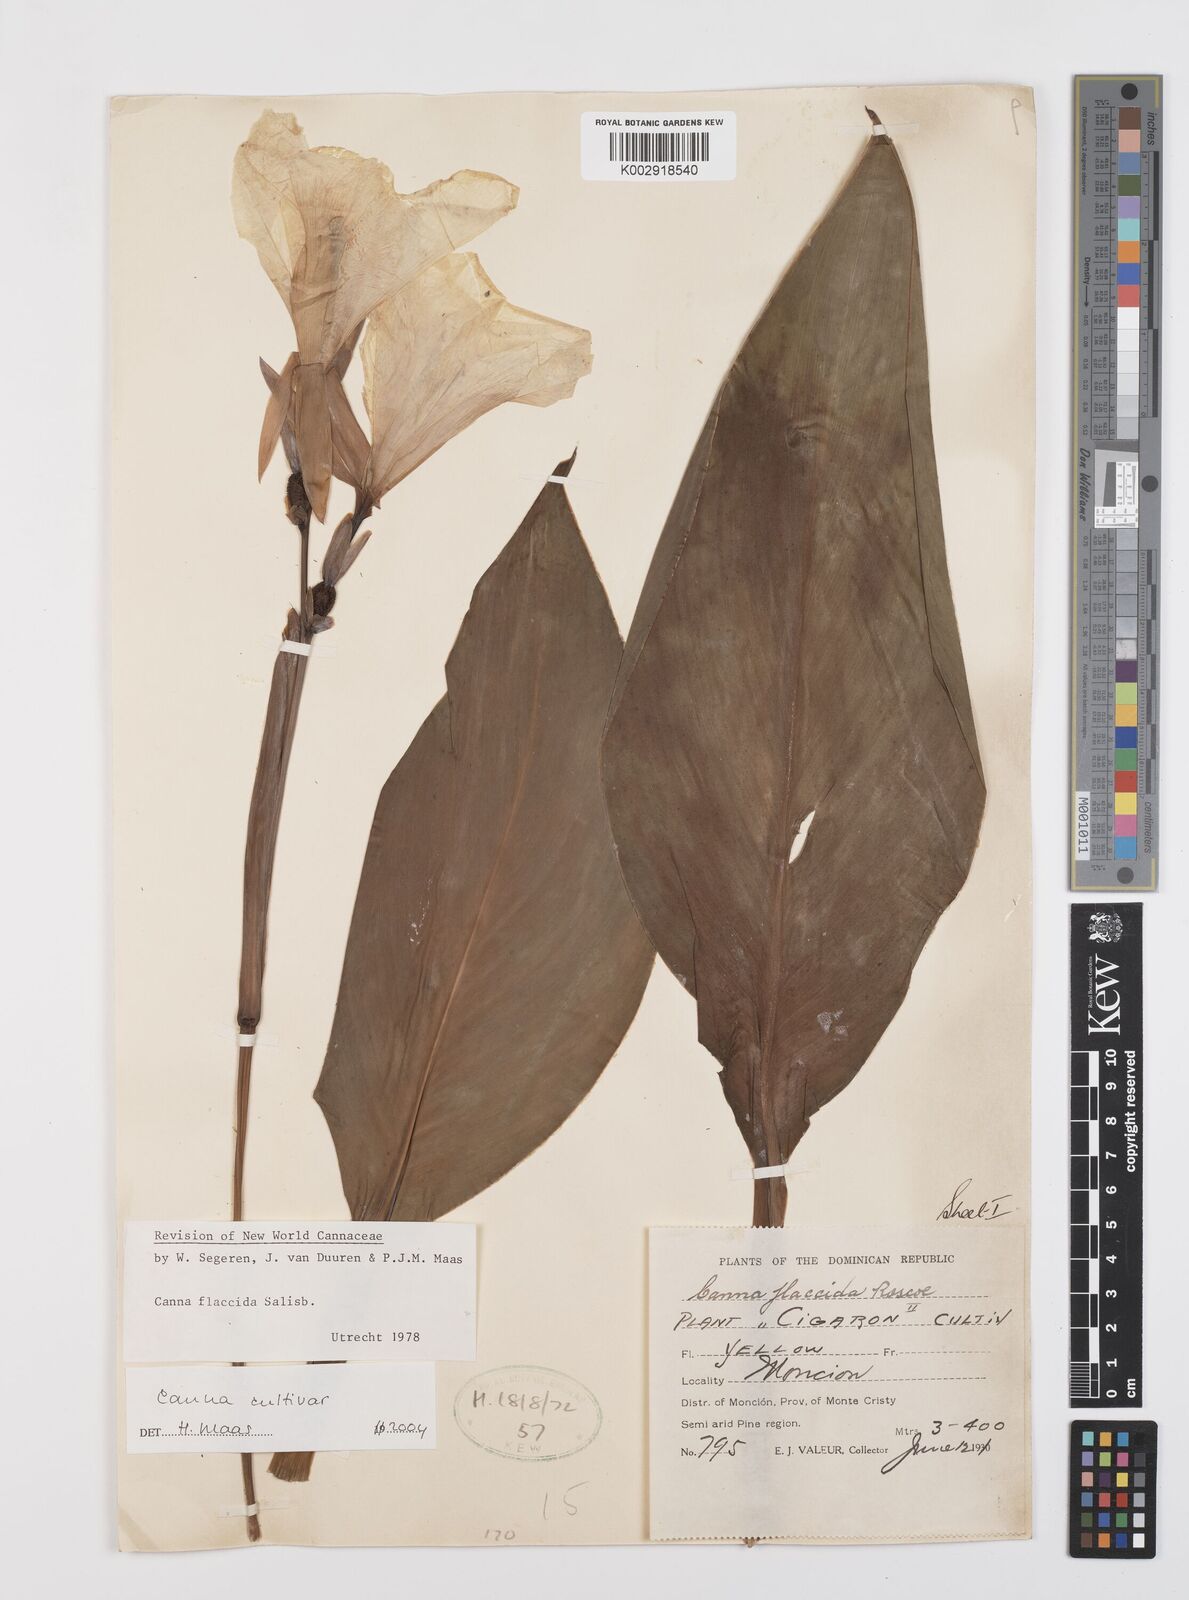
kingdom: Plantae
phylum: Tracheophyta
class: Liliopsida
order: Zingiberales
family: Cannaceae
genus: Canna
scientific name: Canna
